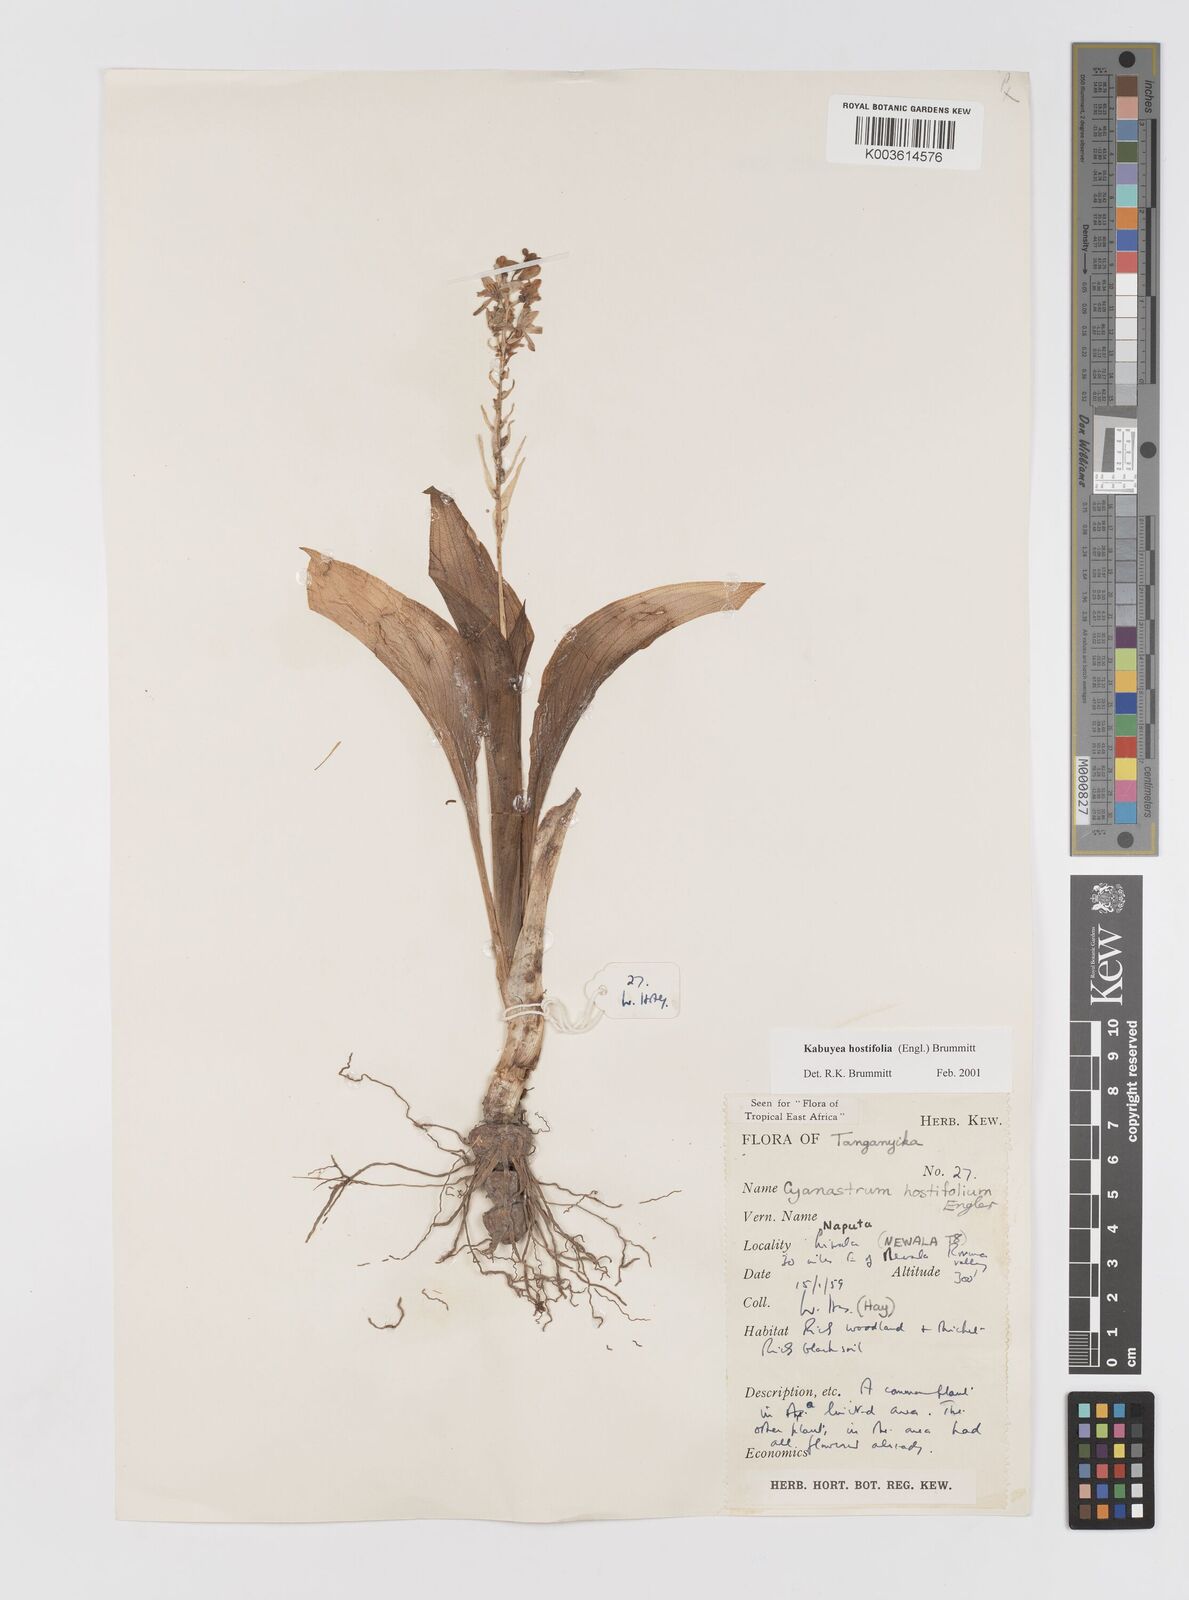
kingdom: Plantae
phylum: Tracheophyta
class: Liliopsida
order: Asparagales
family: Tecophilaeaceae
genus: Kabuyea
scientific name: Kabuyea hostifolia
